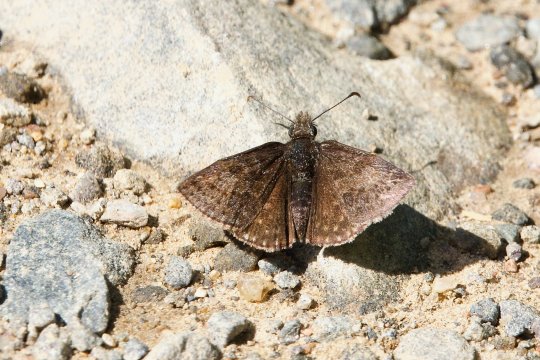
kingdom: Animalia
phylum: Arthropoda
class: Insecta
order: Lepidoptera
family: Hesperiidae
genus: Erynnis
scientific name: Erynnis icelus
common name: Dreamy Duskywing
